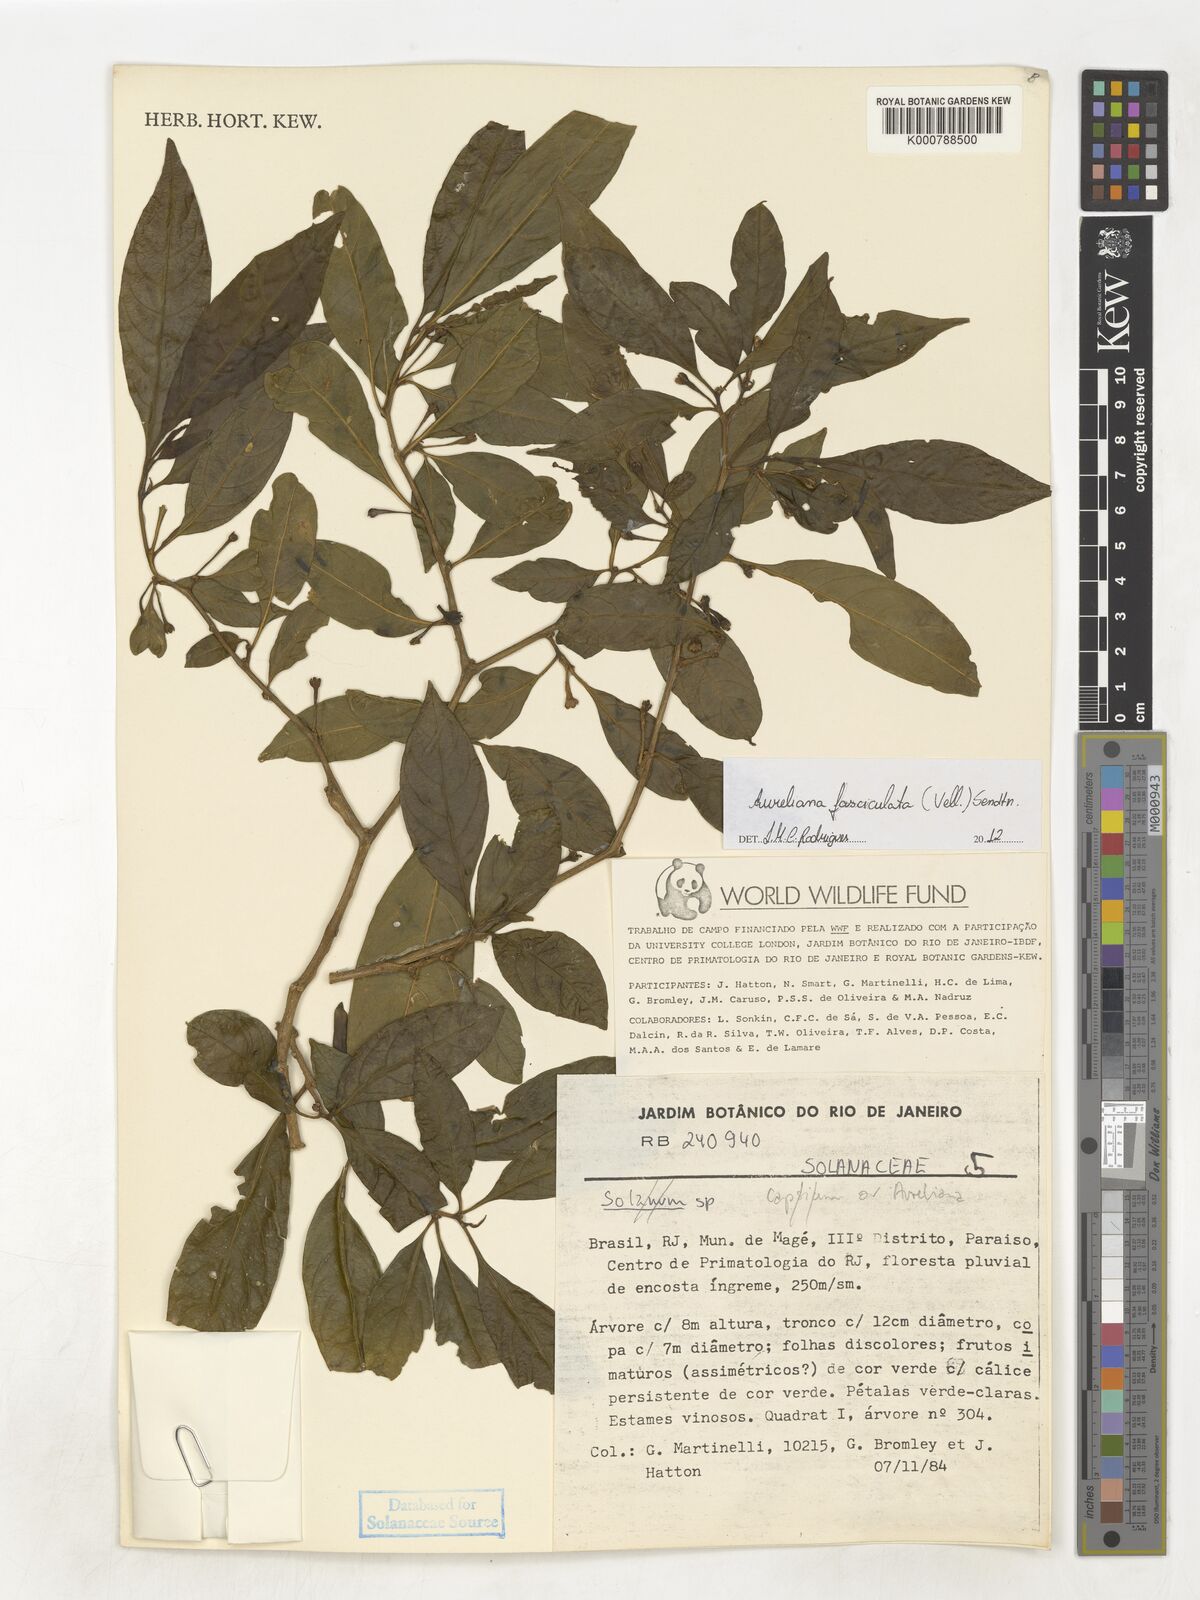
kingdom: Plantae
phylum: Tracheophyta
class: Magnoliopsida
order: Solanales
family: Solanaceae
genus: Athenaea
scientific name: Athenaea fasciculata
